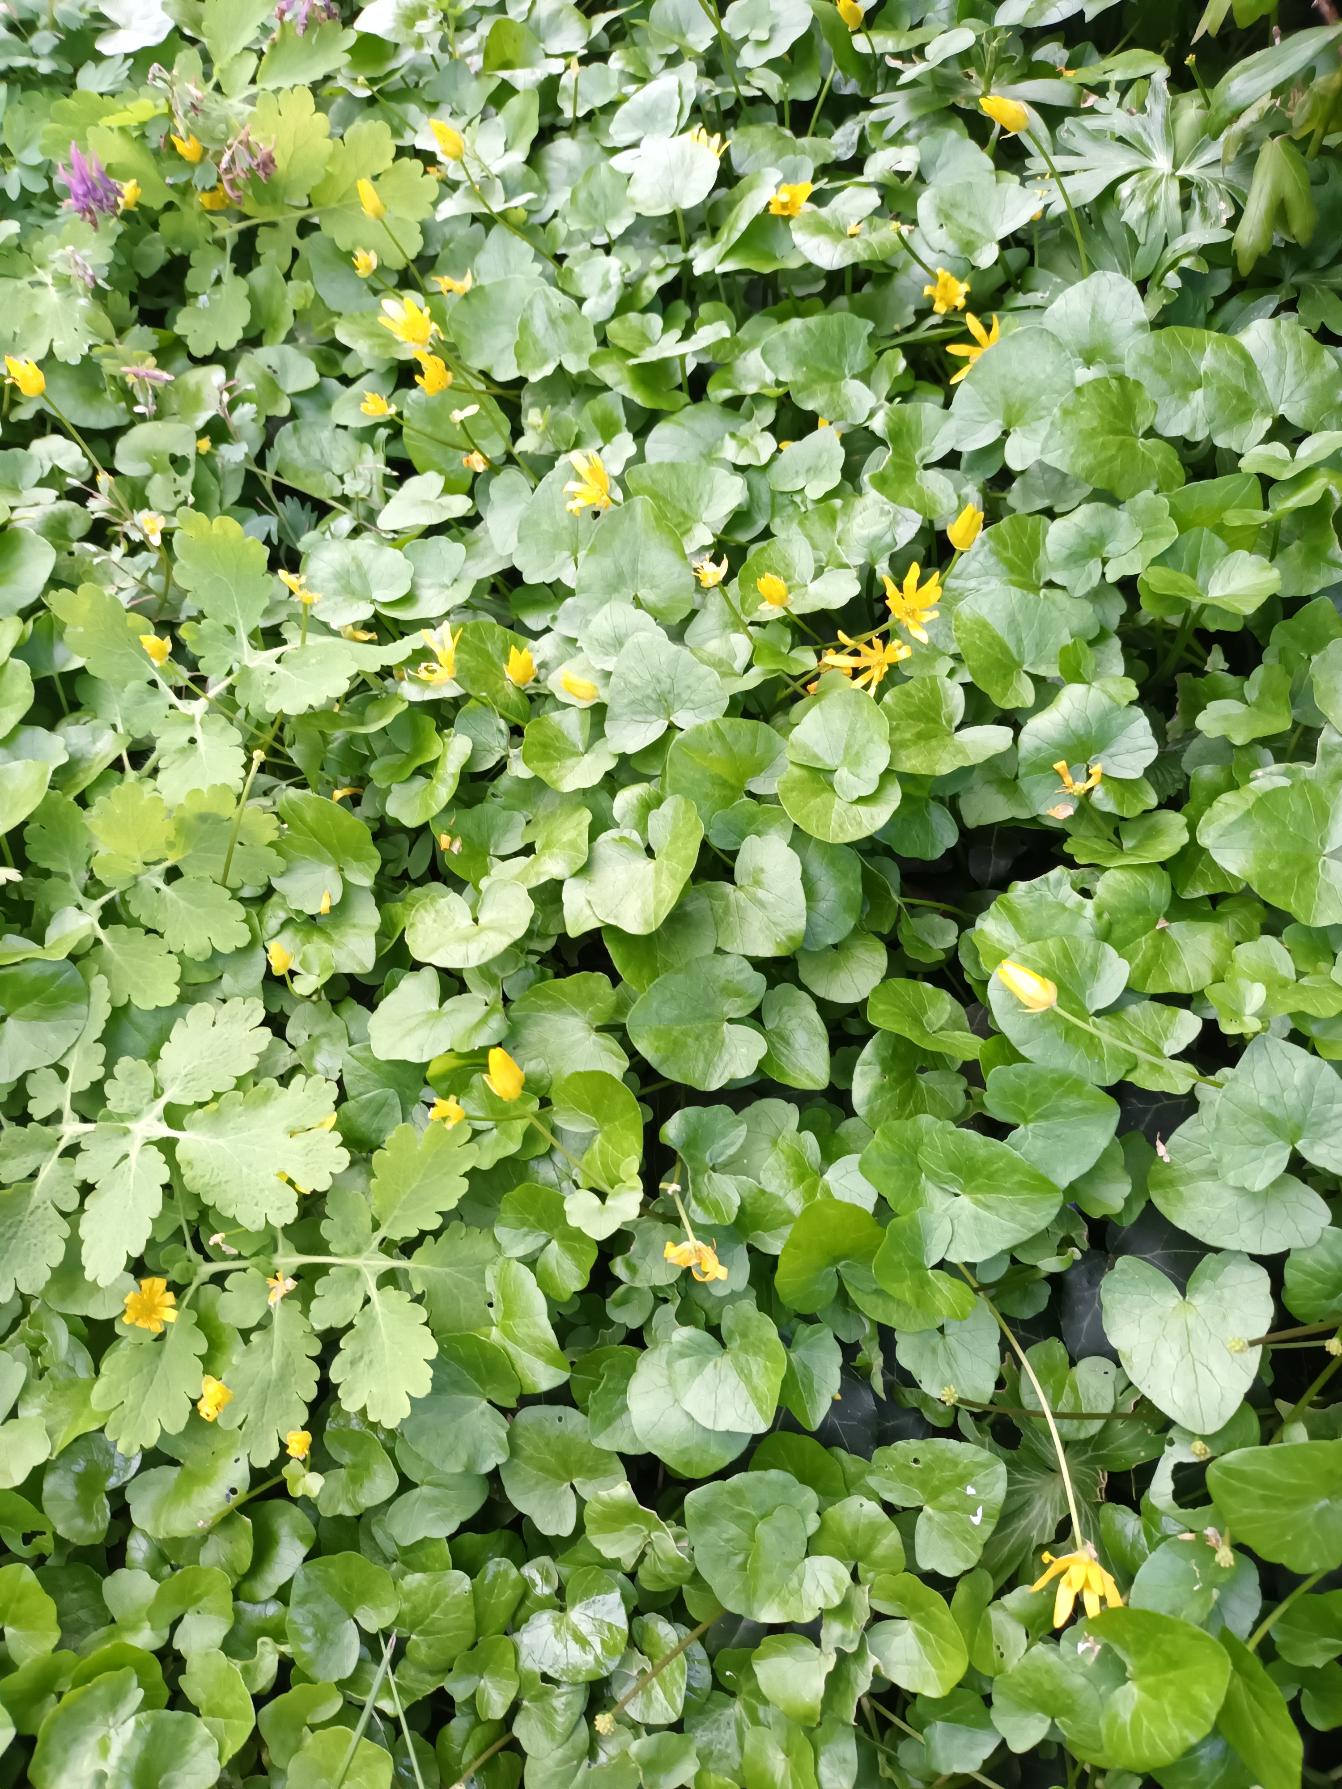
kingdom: Plantae
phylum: Tracheophyta
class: Magnoliopsida
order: Ranunculales
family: Ranunculaceae
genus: Ficaria
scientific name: Ficaria verna
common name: Vorterod
